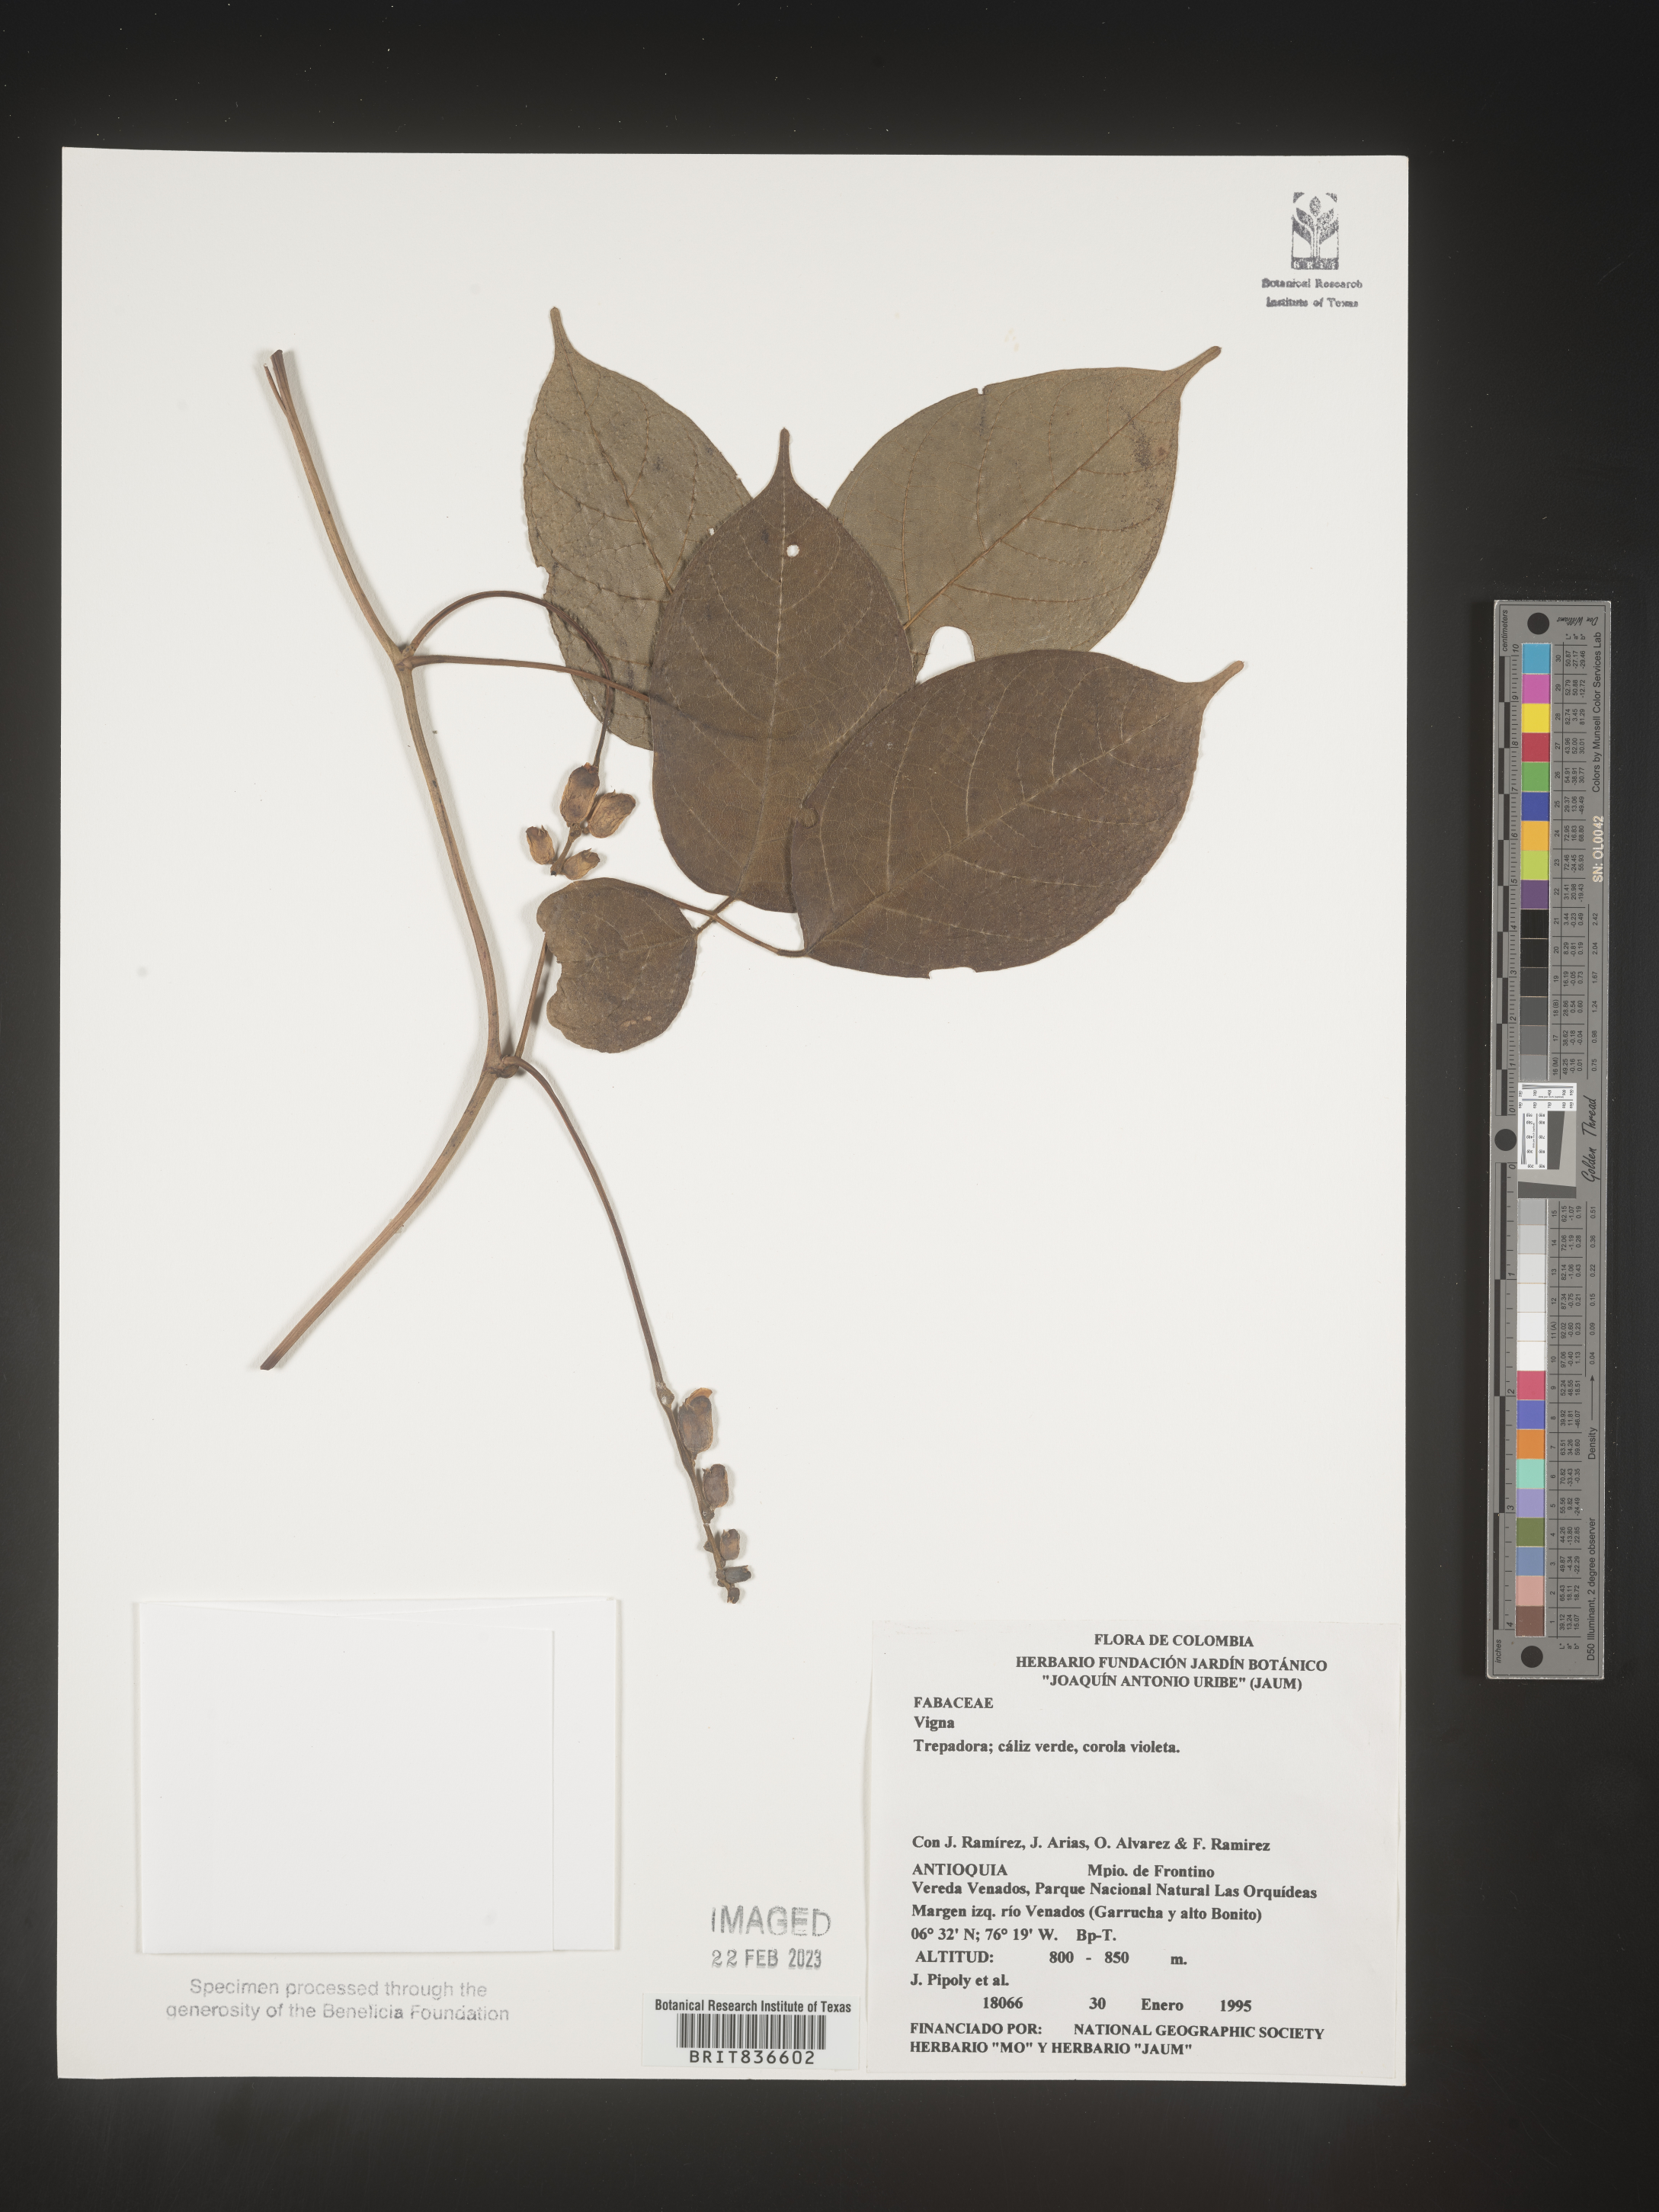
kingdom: Plantae
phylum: Tracheophyta
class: Magnoliopsida
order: Fabales
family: Fabaceae
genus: Vigna
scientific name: Vigna
